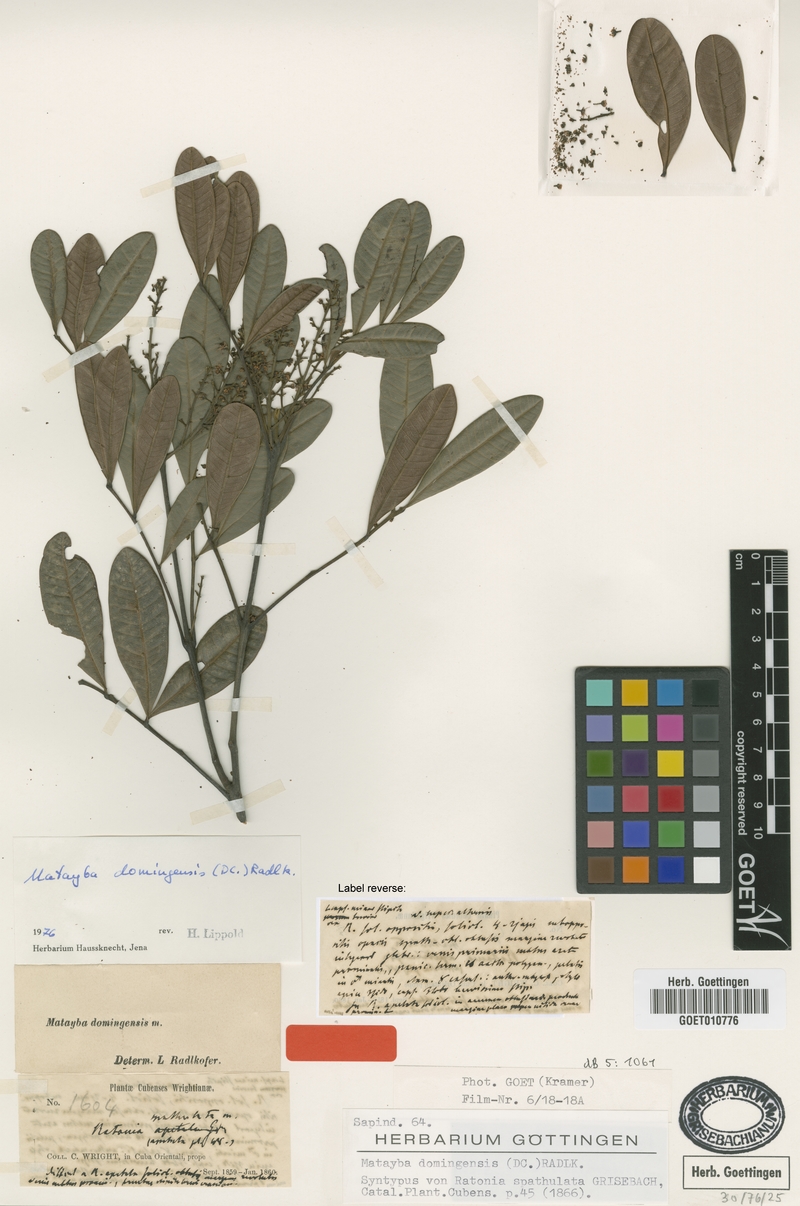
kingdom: Plantae
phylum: Tracheophyta
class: Magnoliopsida
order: Sapindales
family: Sapindaceae
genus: Matayba
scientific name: Matayba domingensis
